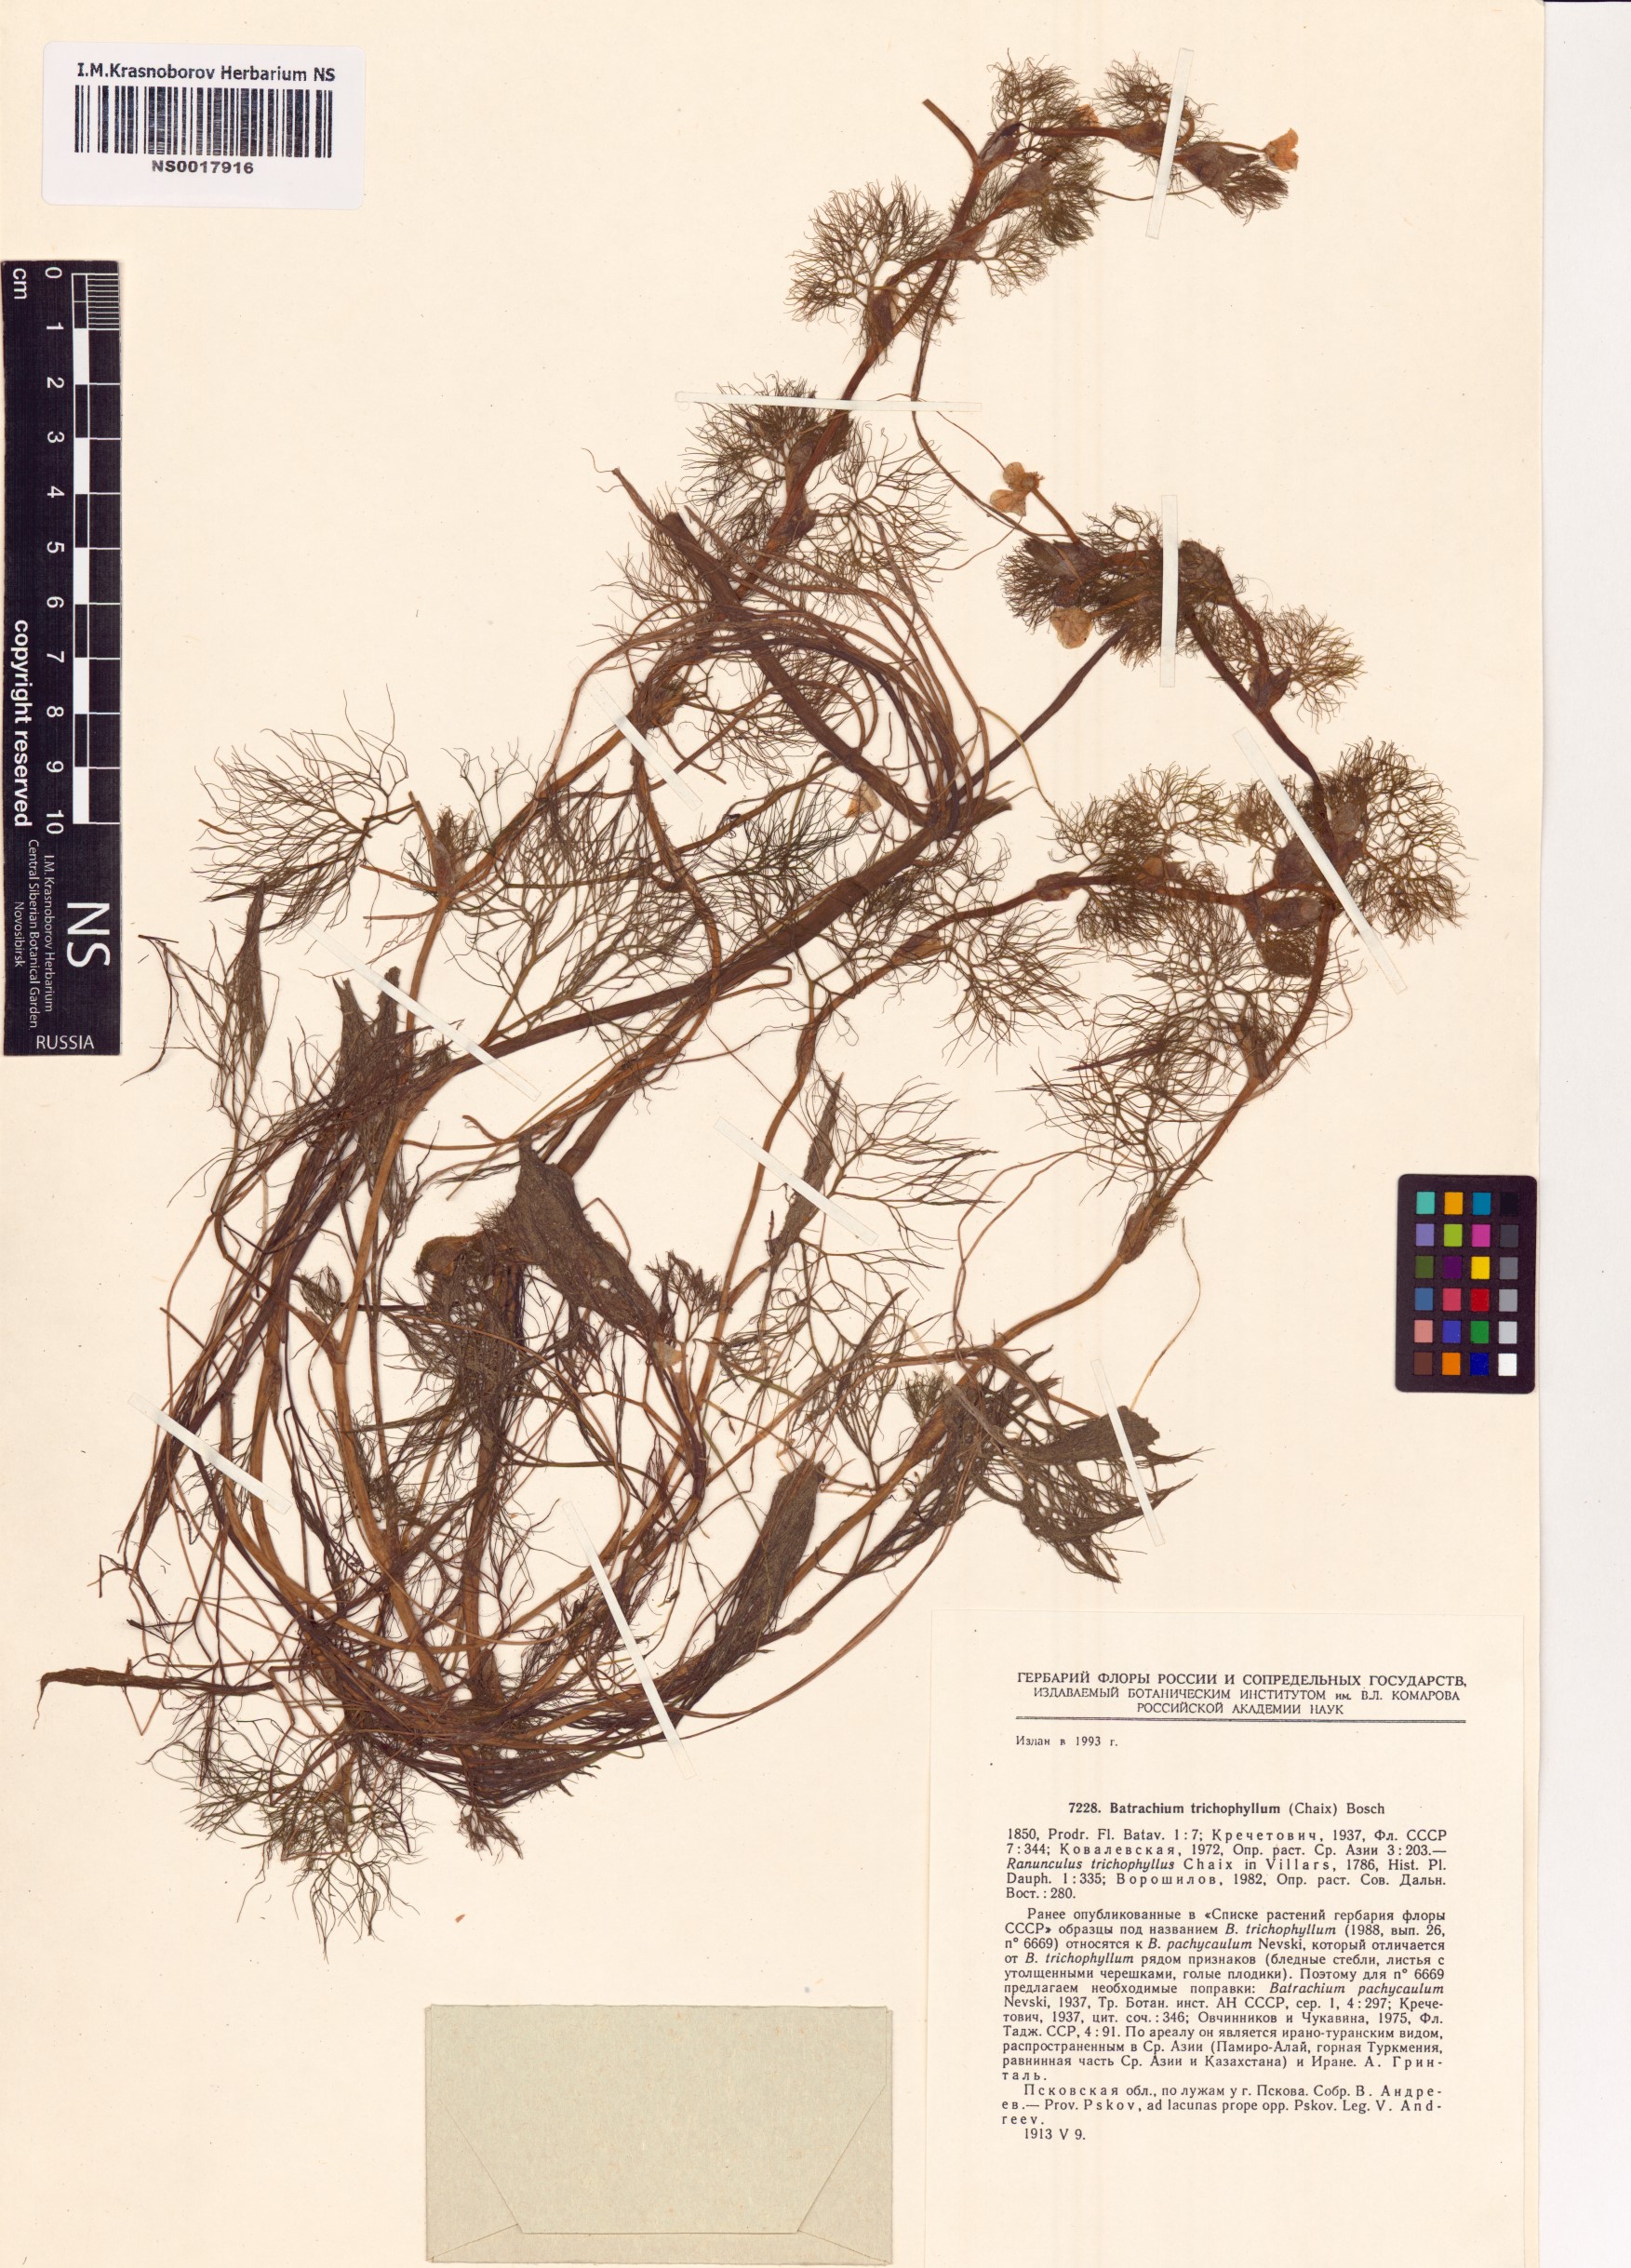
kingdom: Plantae
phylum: Tracheophyta
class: Magnoliopsida
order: Ranunculales
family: Ranunculaceae
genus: Ranunculus
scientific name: Ranunculus trichophyllus
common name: Thread-leaved water-crowfoot
